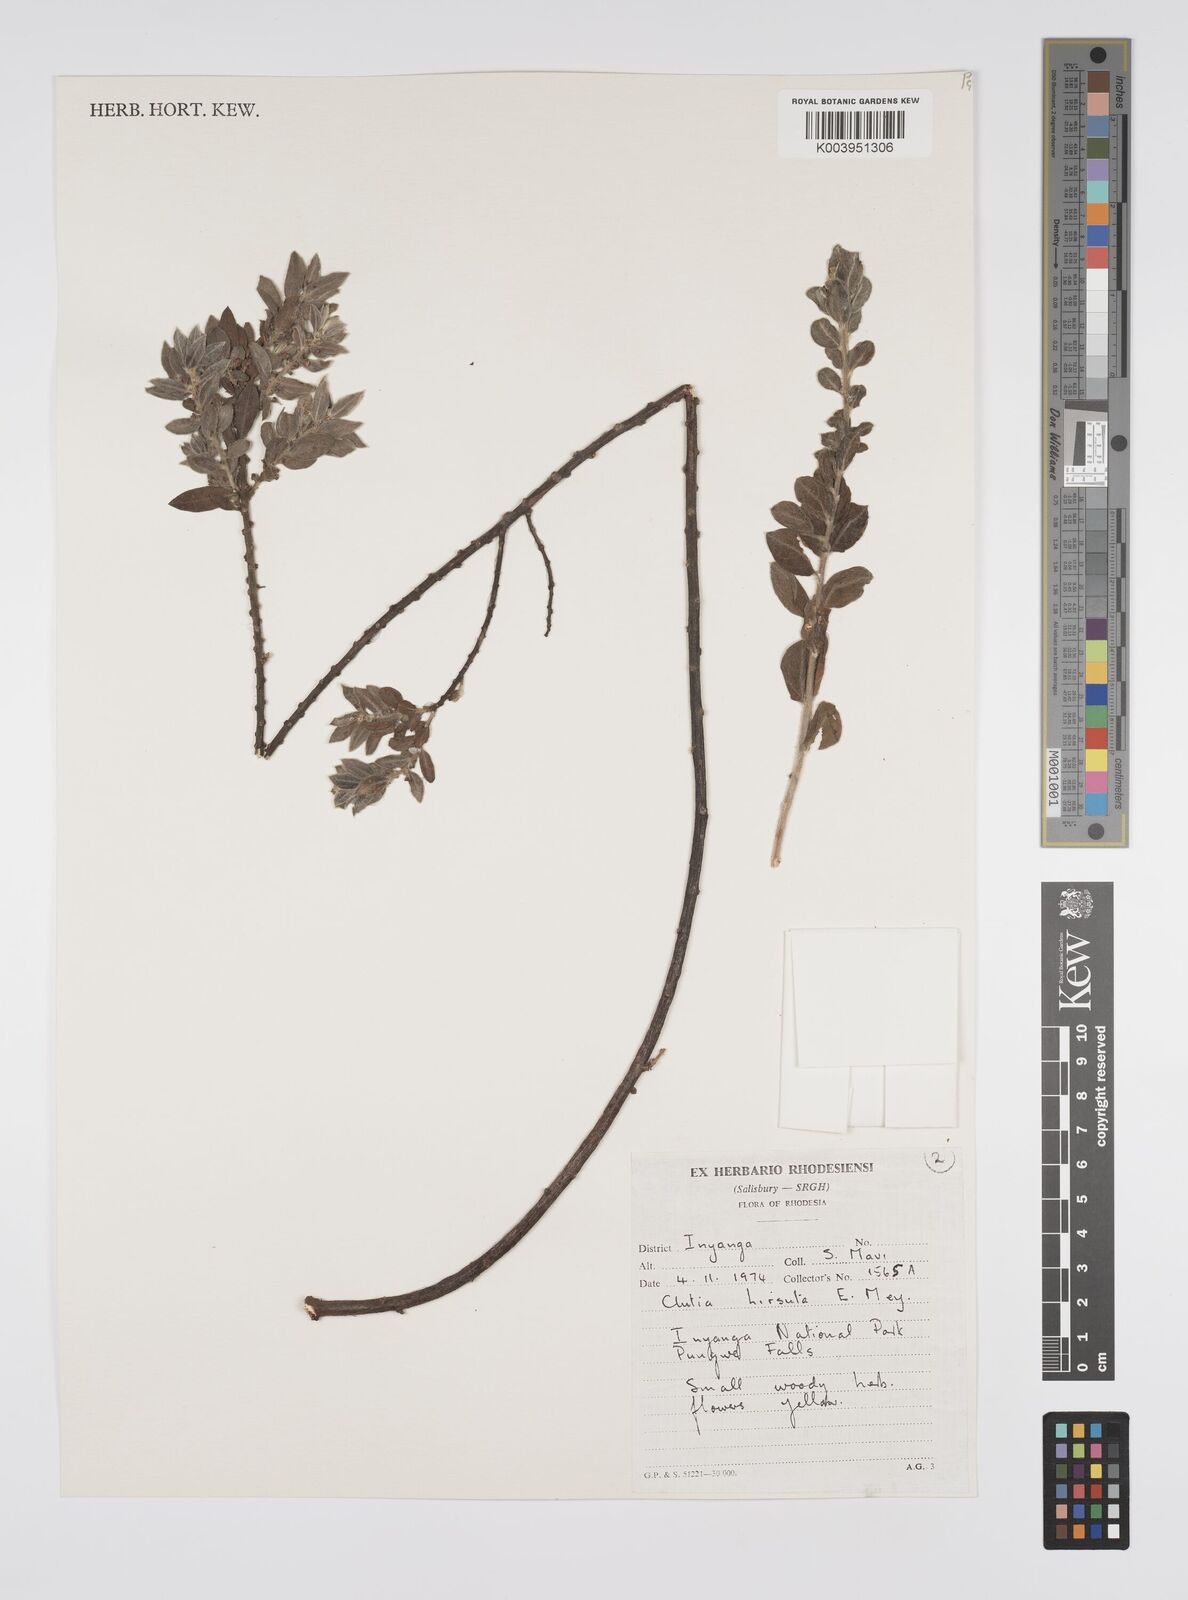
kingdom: Plantae
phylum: Tracheophyta
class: Magnoliopsida
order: Malpighiales
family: Peraceae
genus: Clutia
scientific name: Clutia hirsuta
